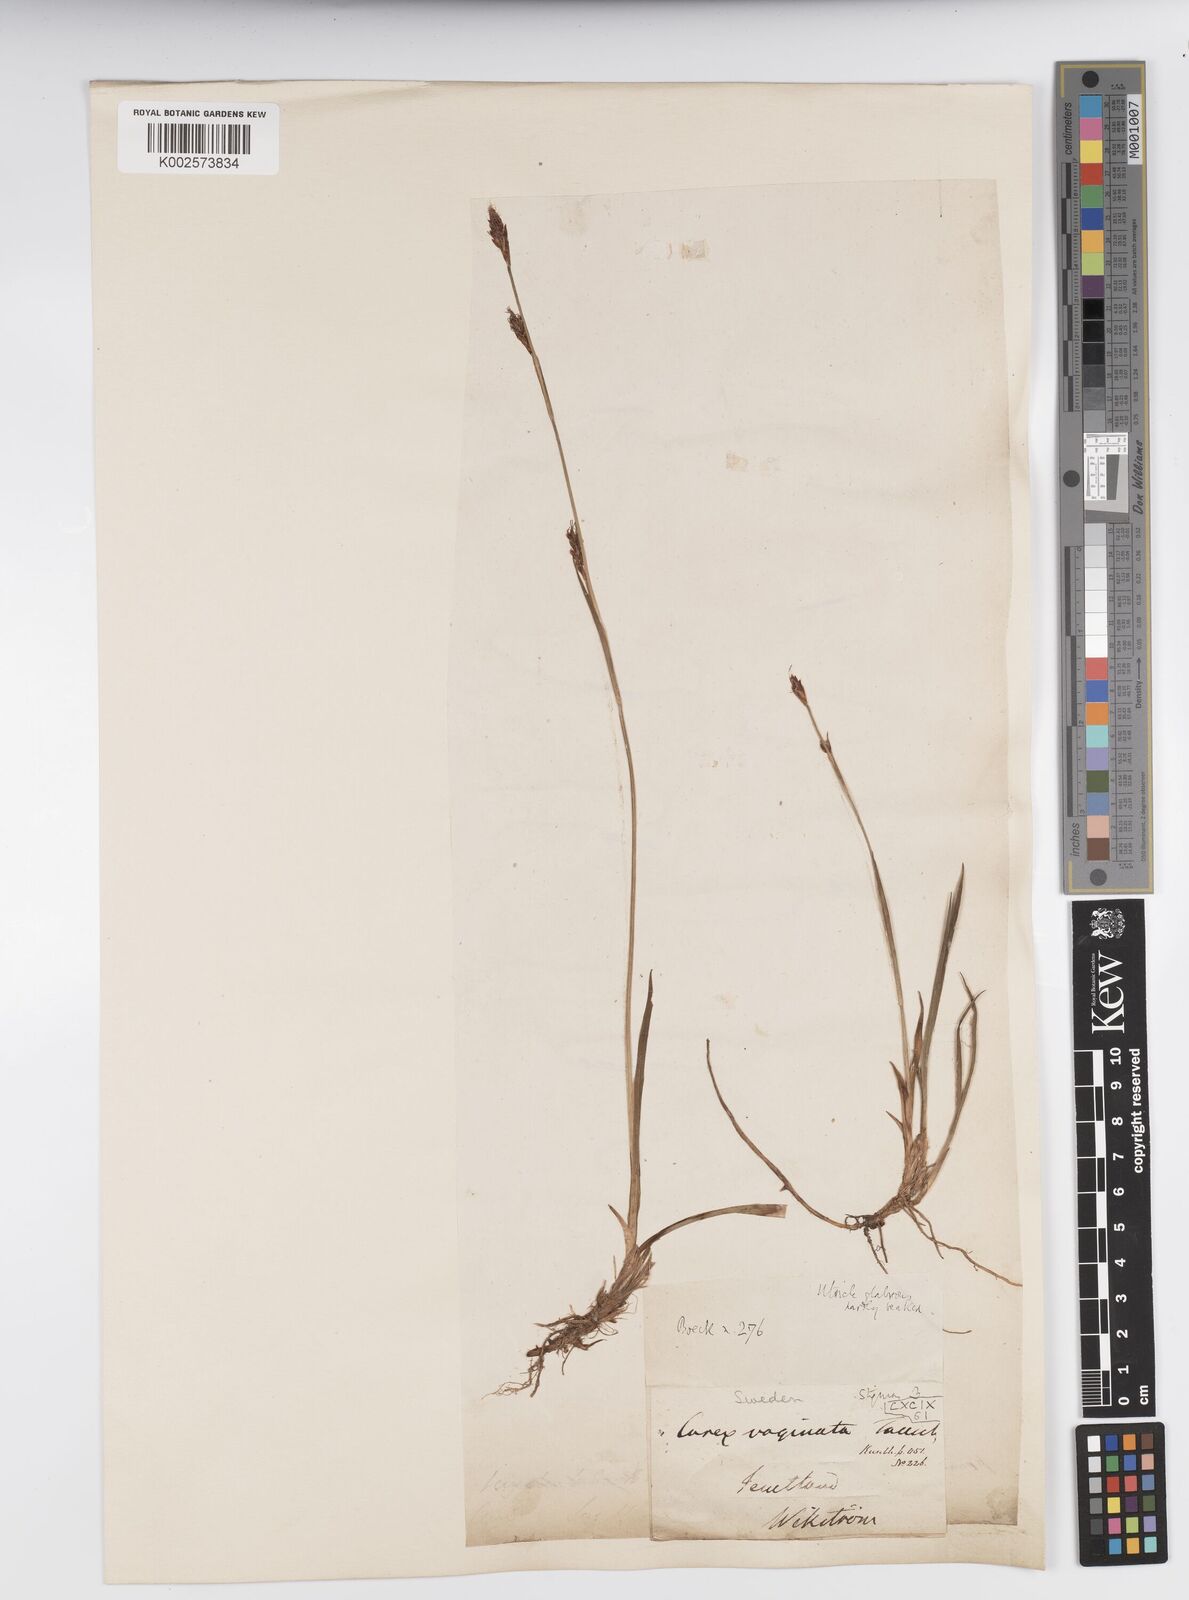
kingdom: Plantae
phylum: Tracheophyta
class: Liliopsida
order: Poales
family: Cyperaceae
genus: Carex
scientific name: Carex vaginata
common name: Sheathed sedge
